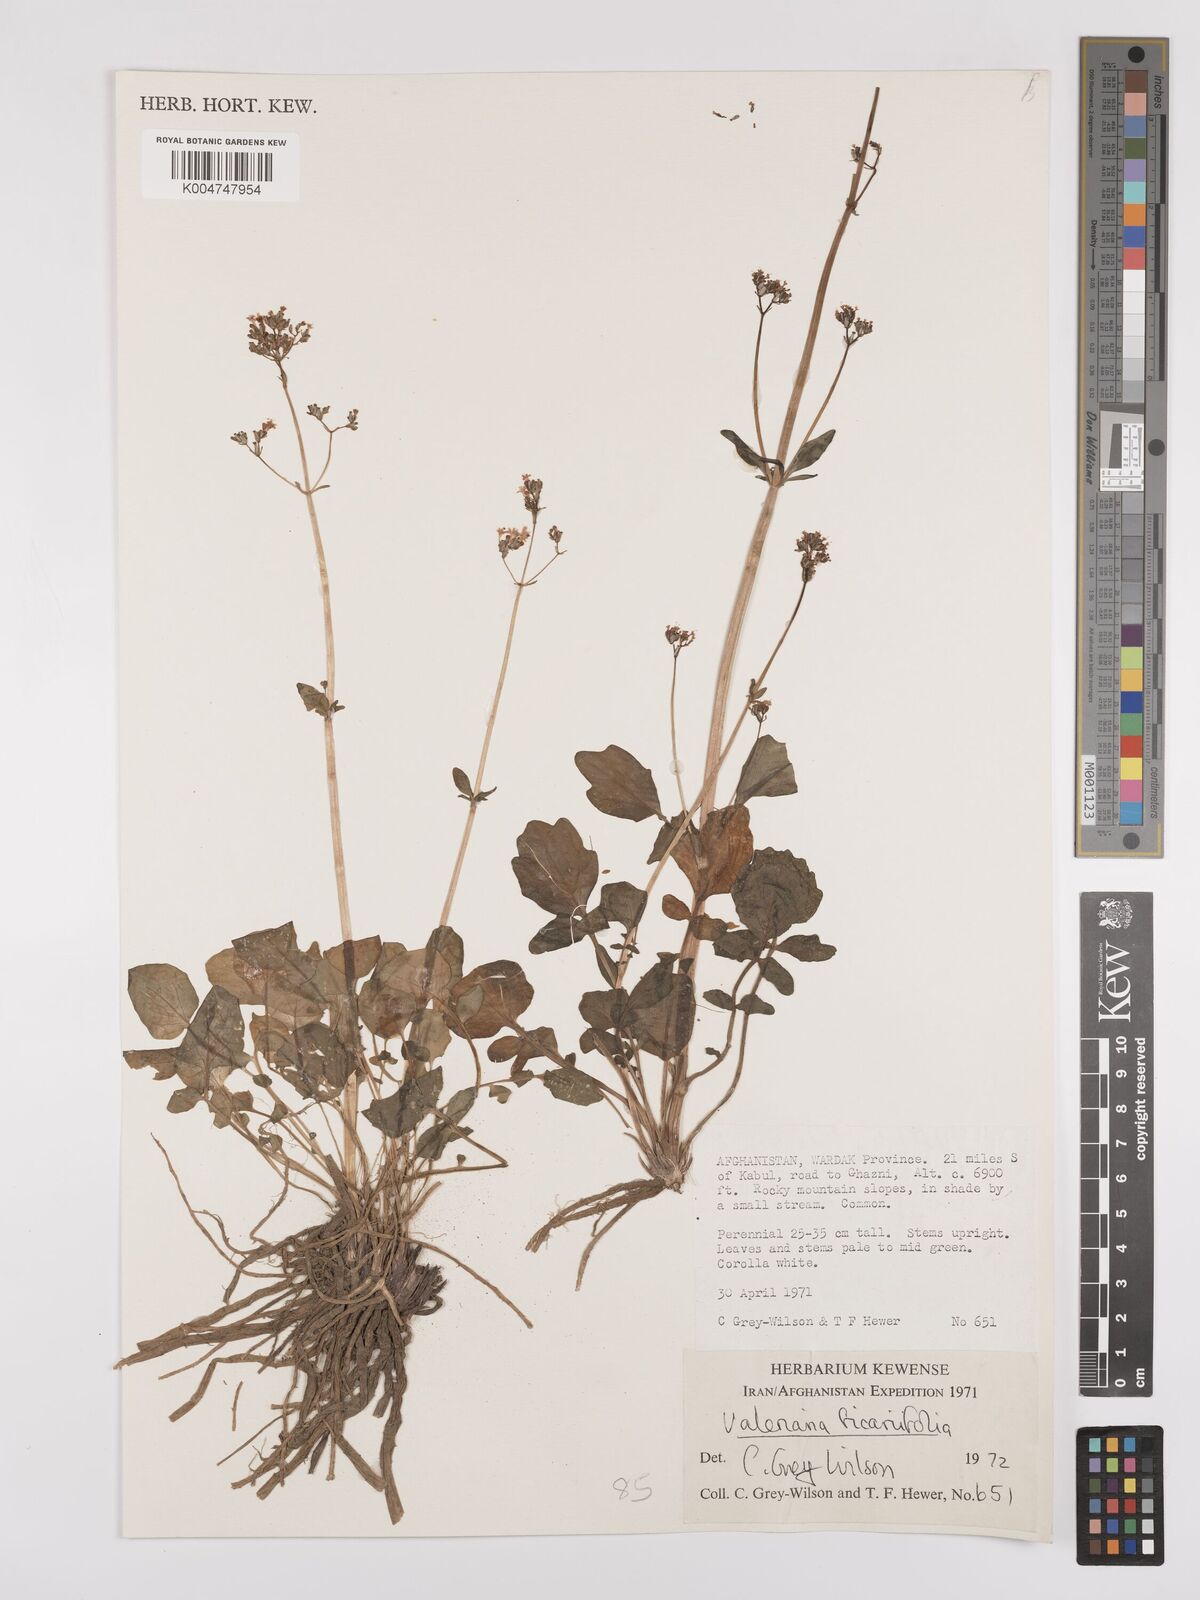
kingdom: Plantae
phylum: Tracheophyta
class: Magnoliopsida
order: Dipsacales
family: Caprifoliaceae
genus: Valeriana
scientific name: Valeriana ficariifolia
